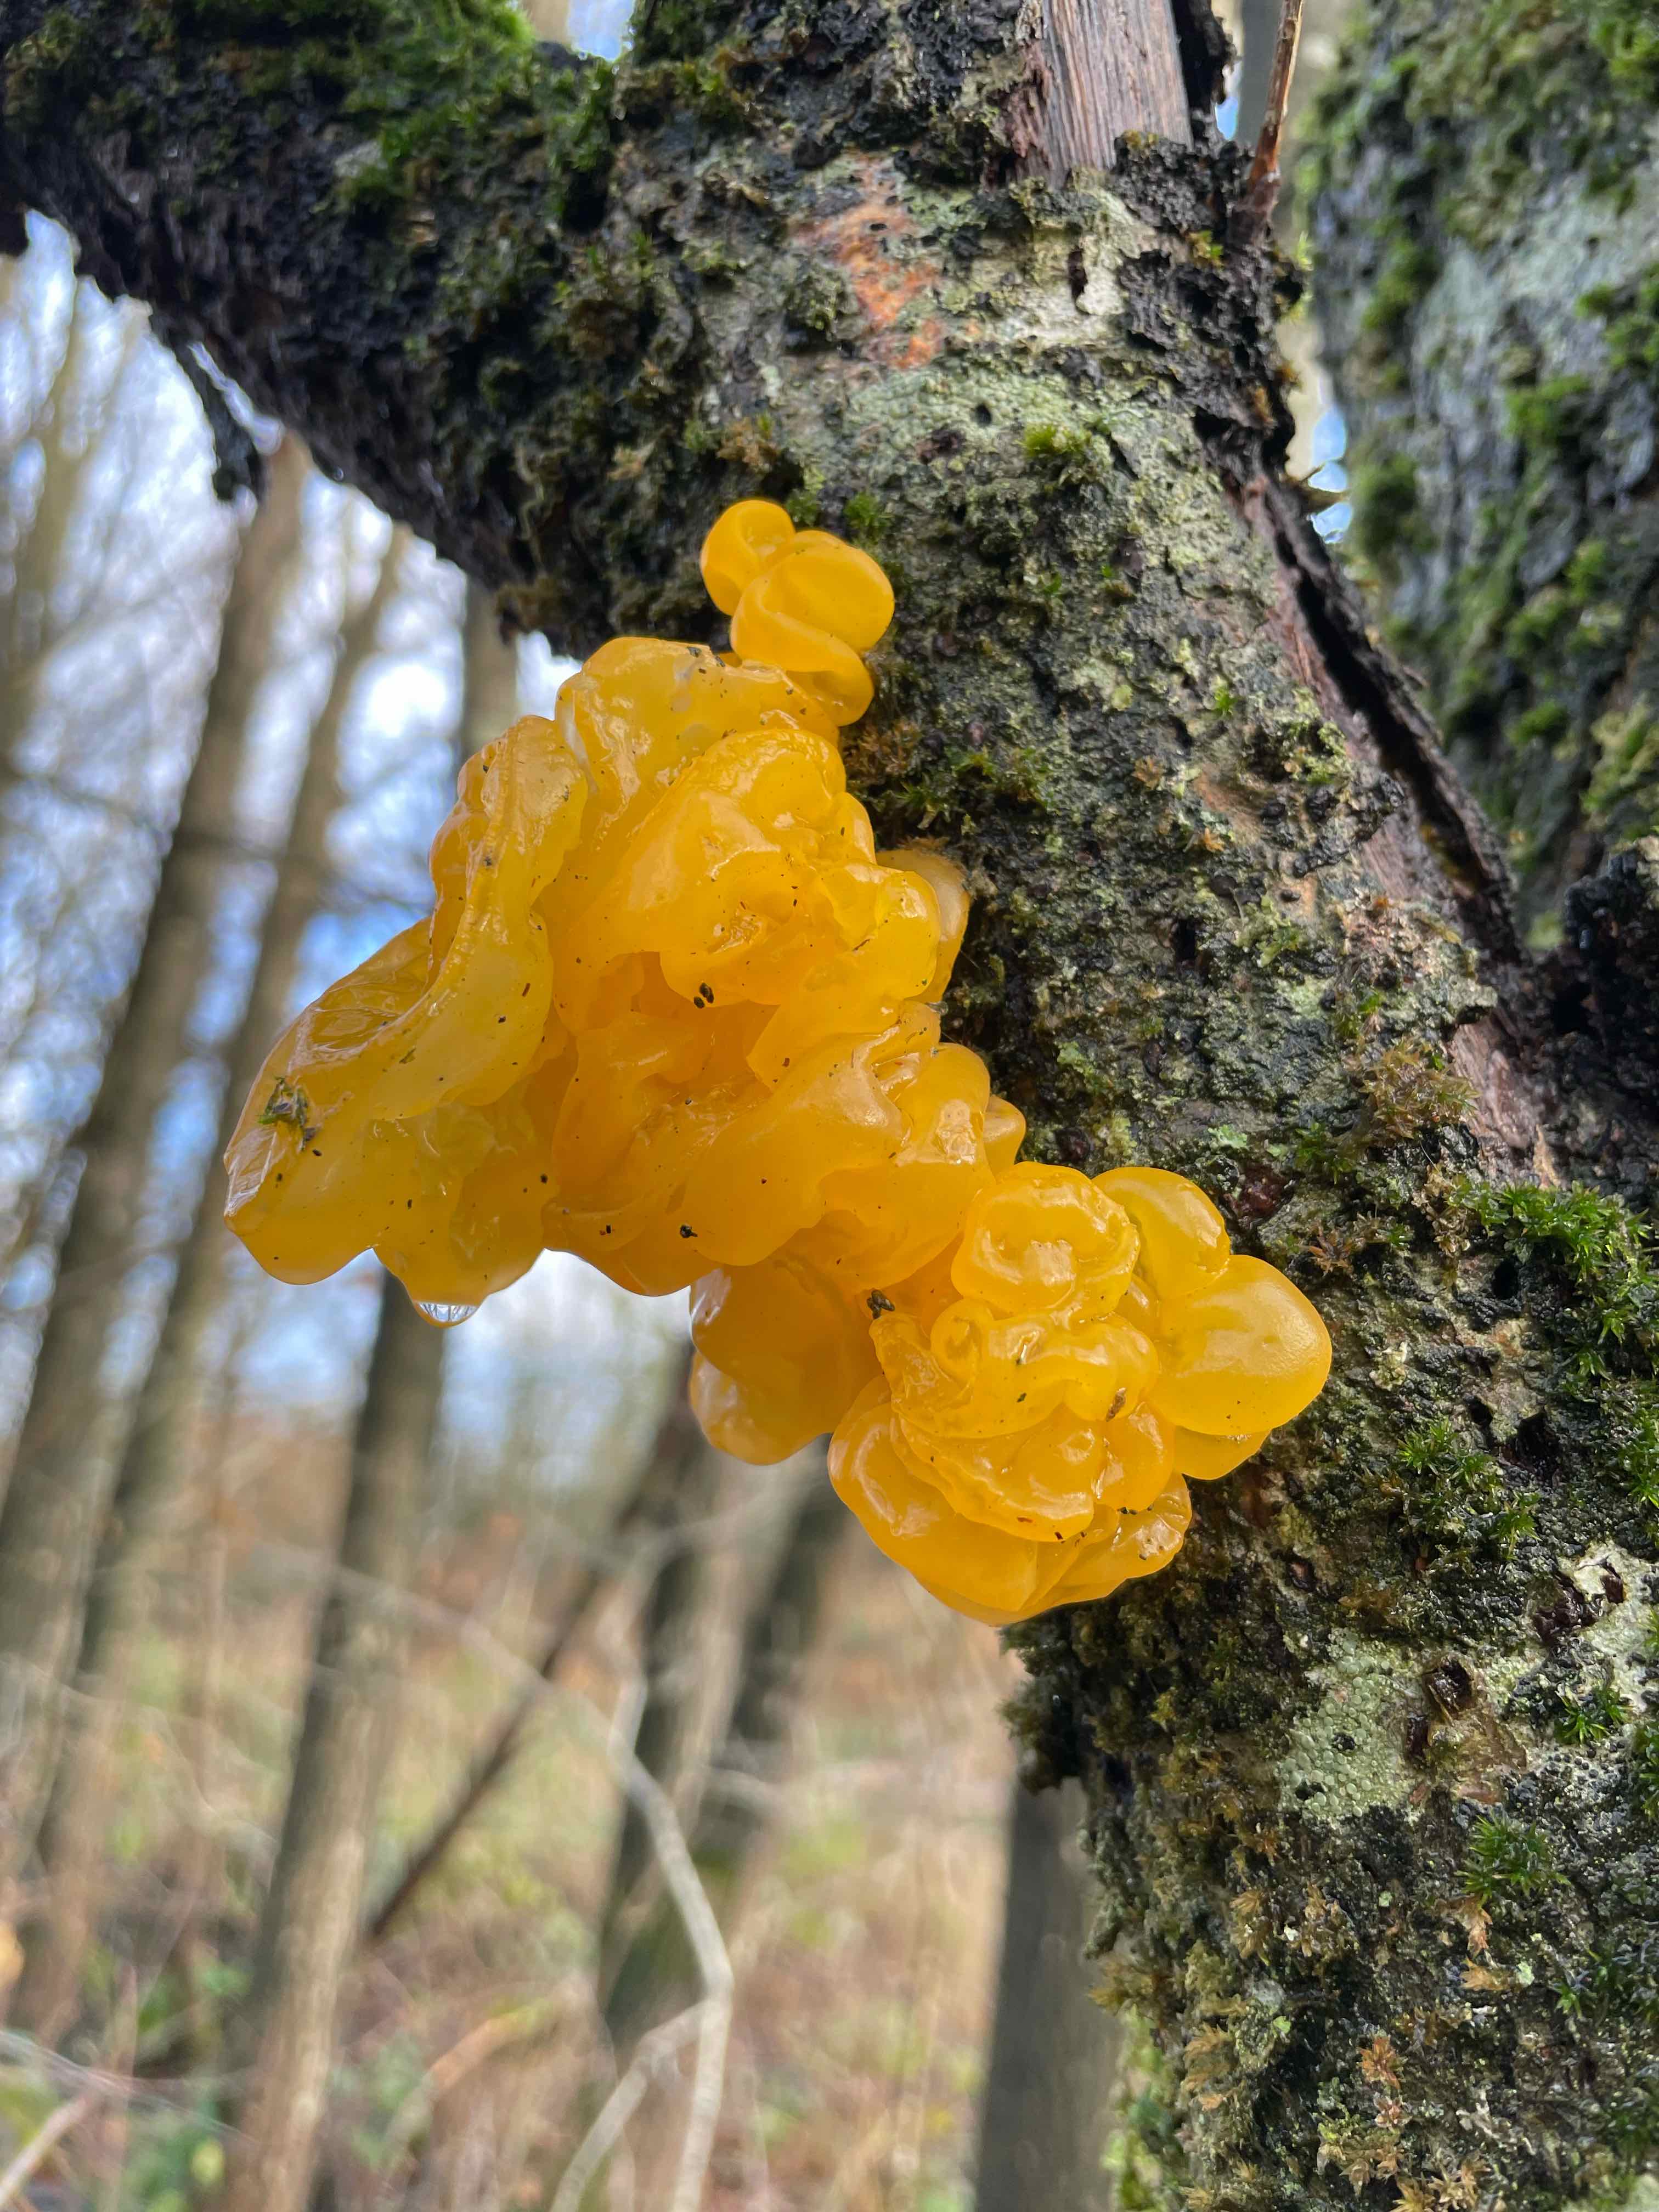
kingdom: Fungi
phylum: Basidiomycota
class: Tremellomycetes
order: Tremellales
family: Tremellaceae
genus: Tremella
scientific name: Tremella mesenterica
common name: gul bævresvamp
